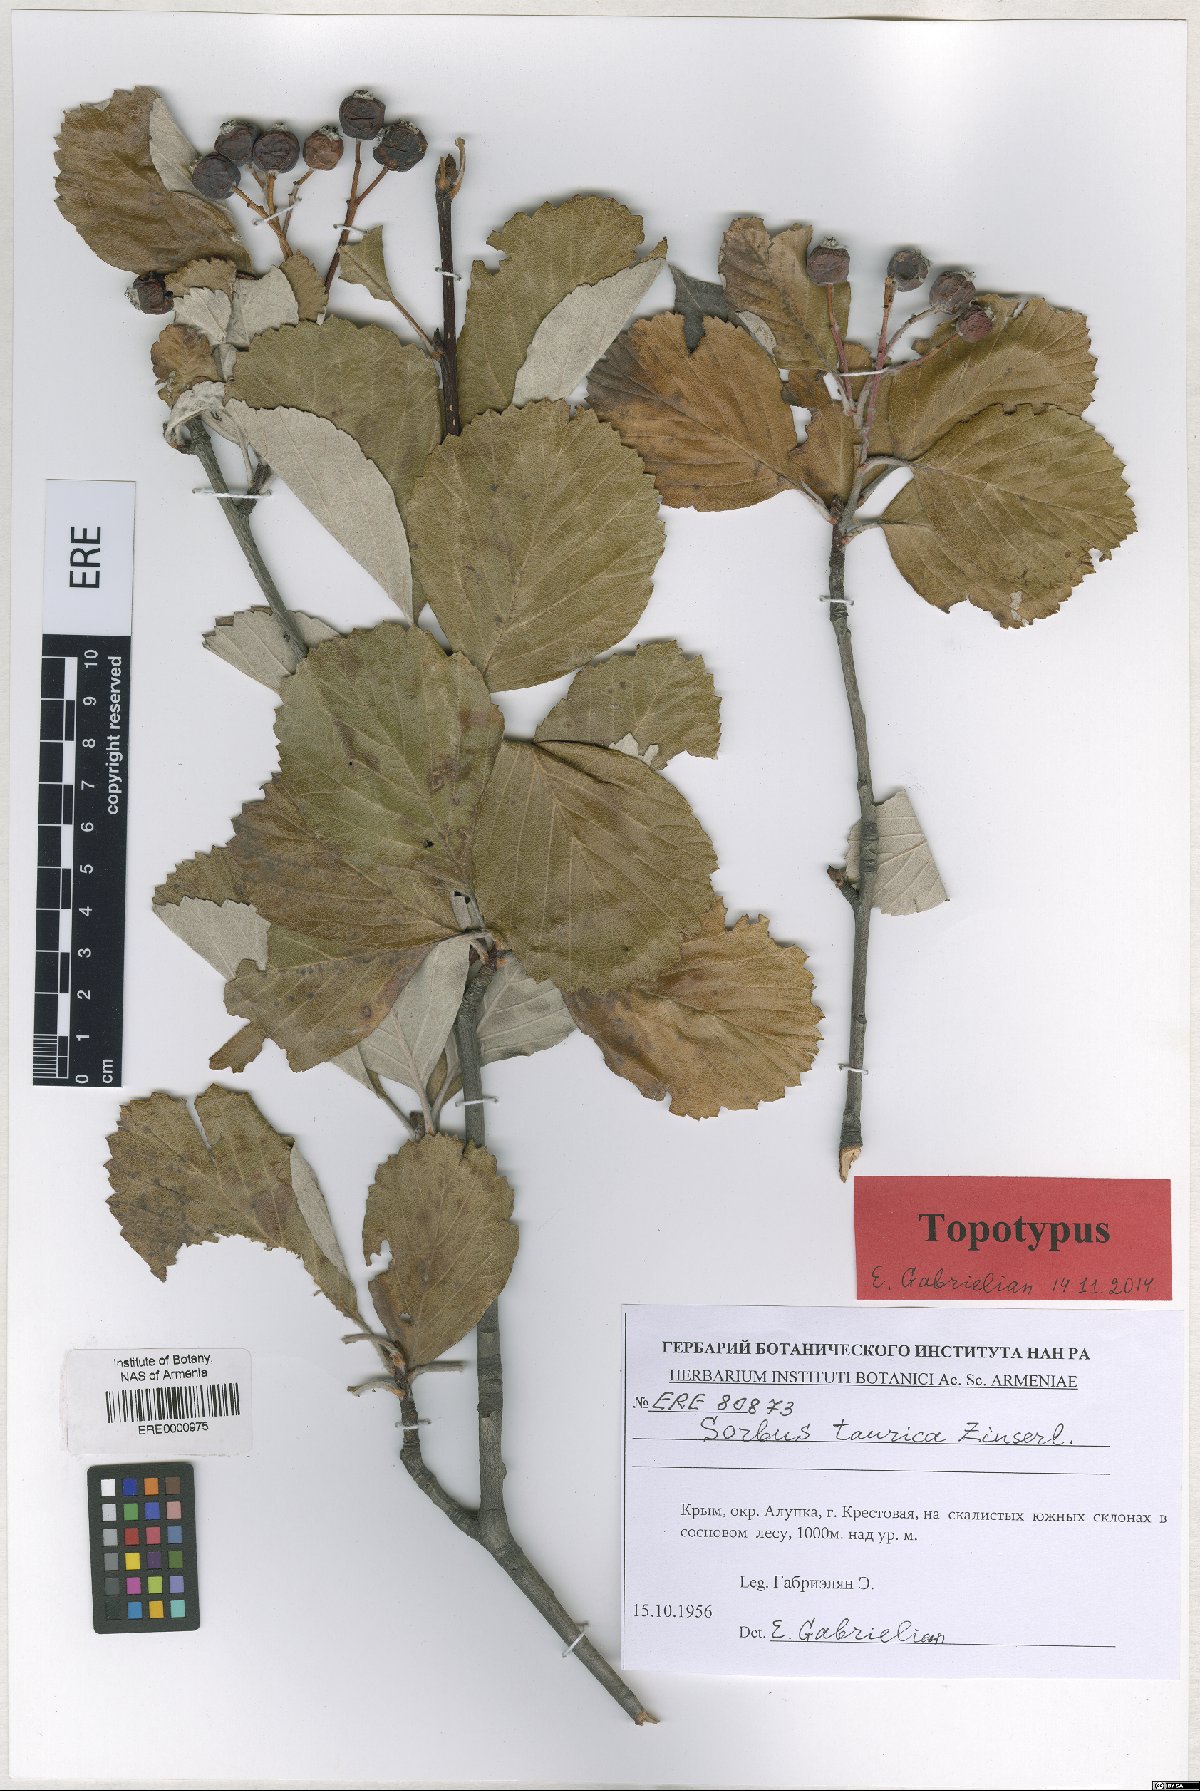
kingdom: Plantae
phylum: Tracheophyta
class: Magnoliopsida
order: Rosales
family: Rosaceae
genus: Aria
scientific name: Aria taurica
